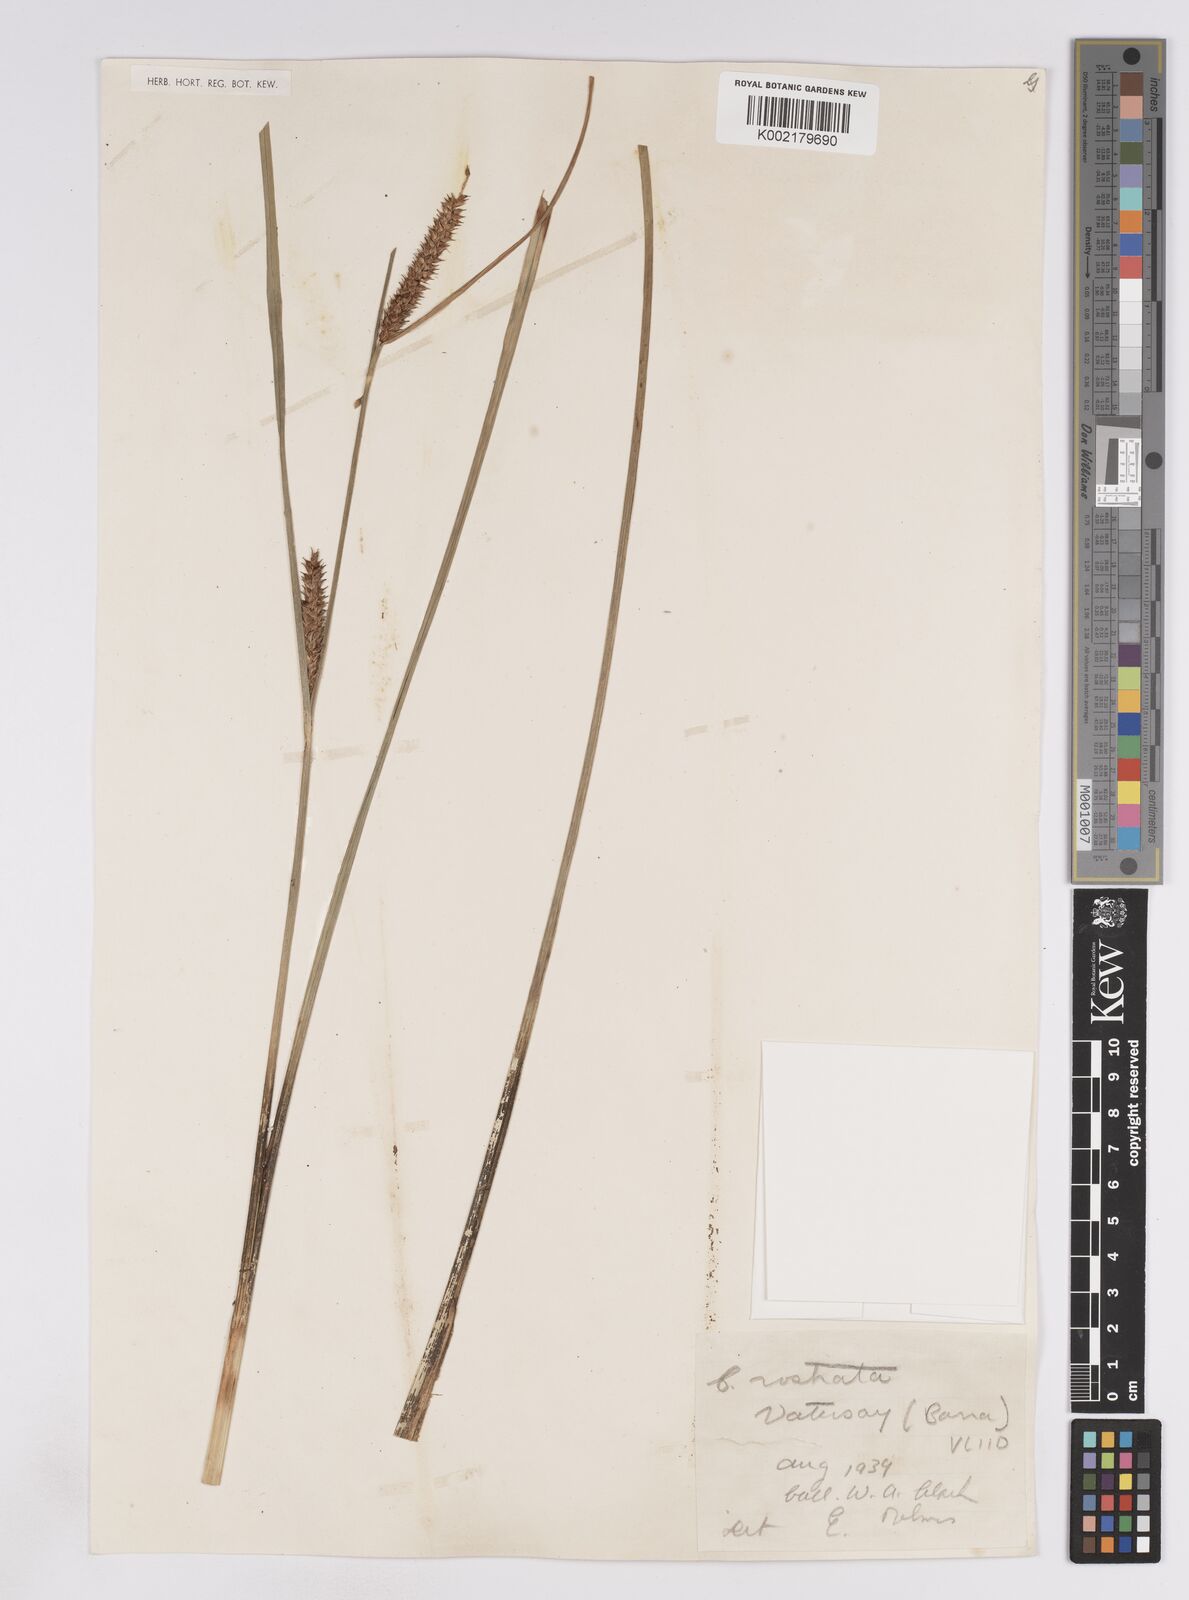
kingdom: Plantae
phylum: Tracheophyta
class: Liliopsida
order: Poales
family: Cyperaceae
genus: Carex
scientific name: Carex rostrata
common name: Bottle sedge
